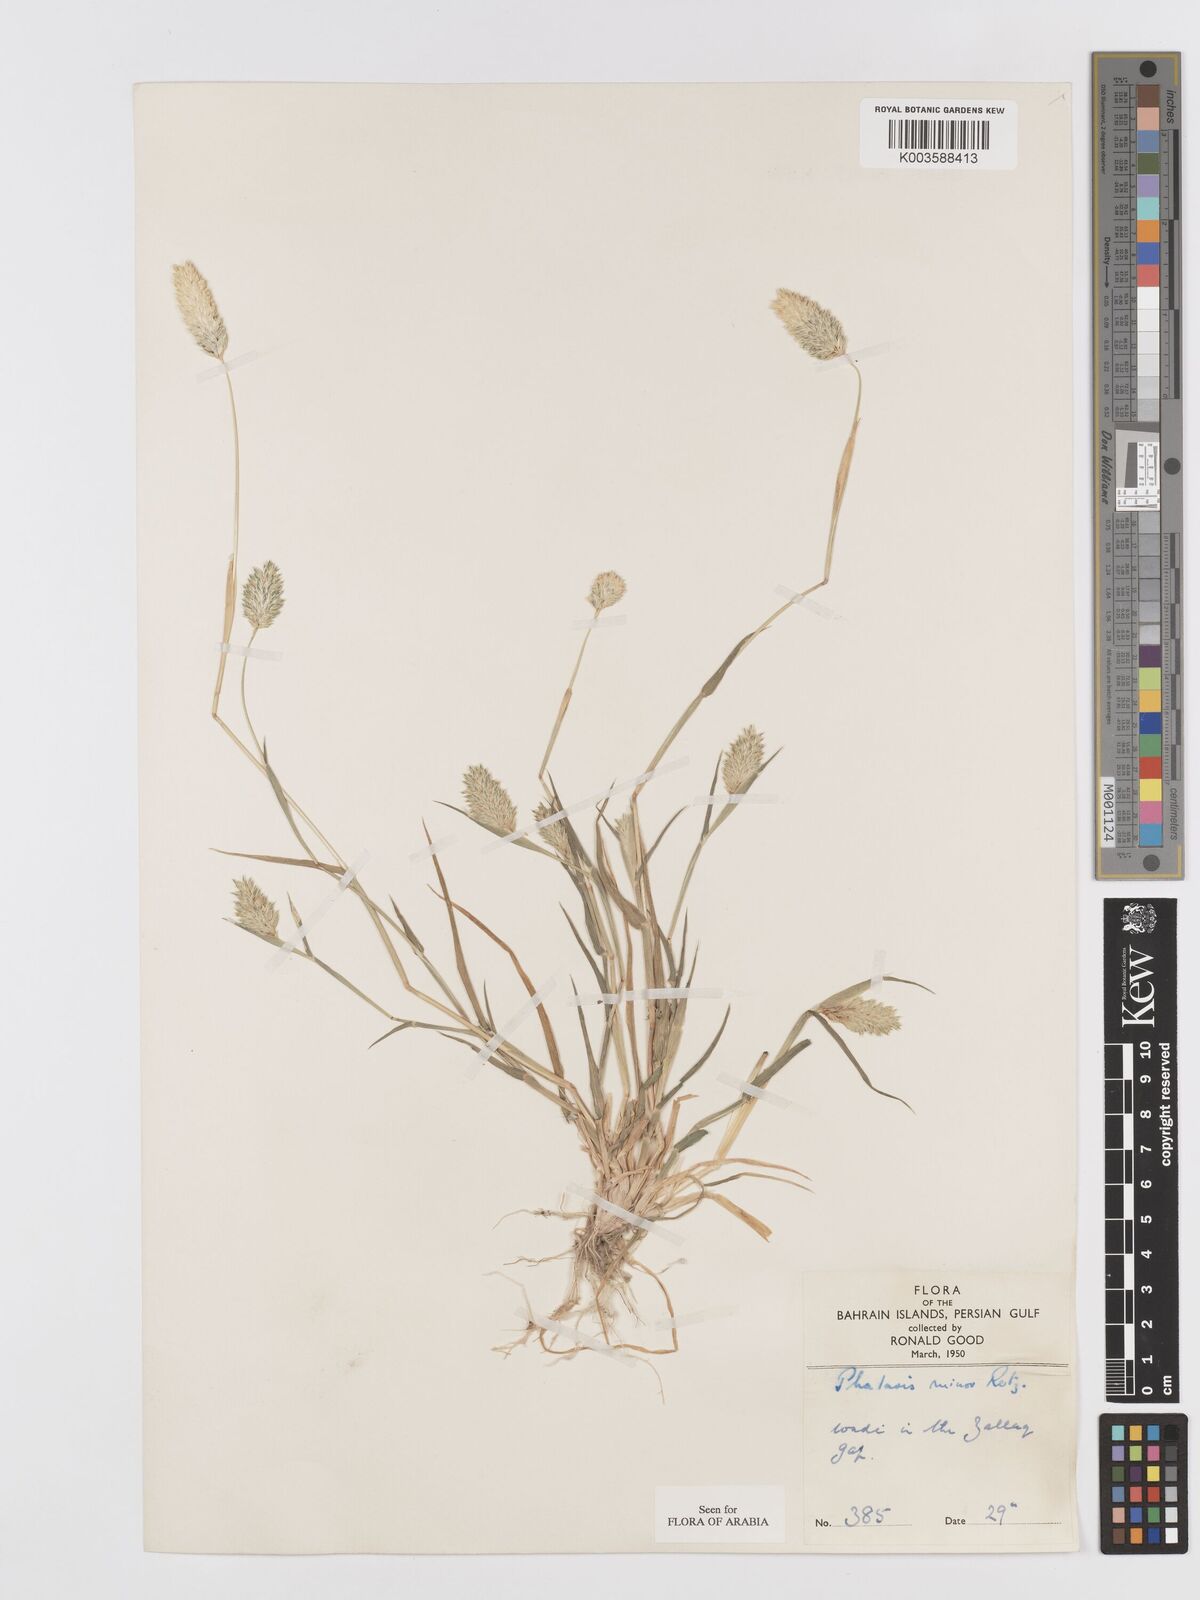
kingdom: Plantae
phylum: Tracheophyta
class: Liliopsida
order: Poales
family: Poaceae
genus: Phalaris
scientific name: Phalaris minor
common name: Littleseed canarygrass
